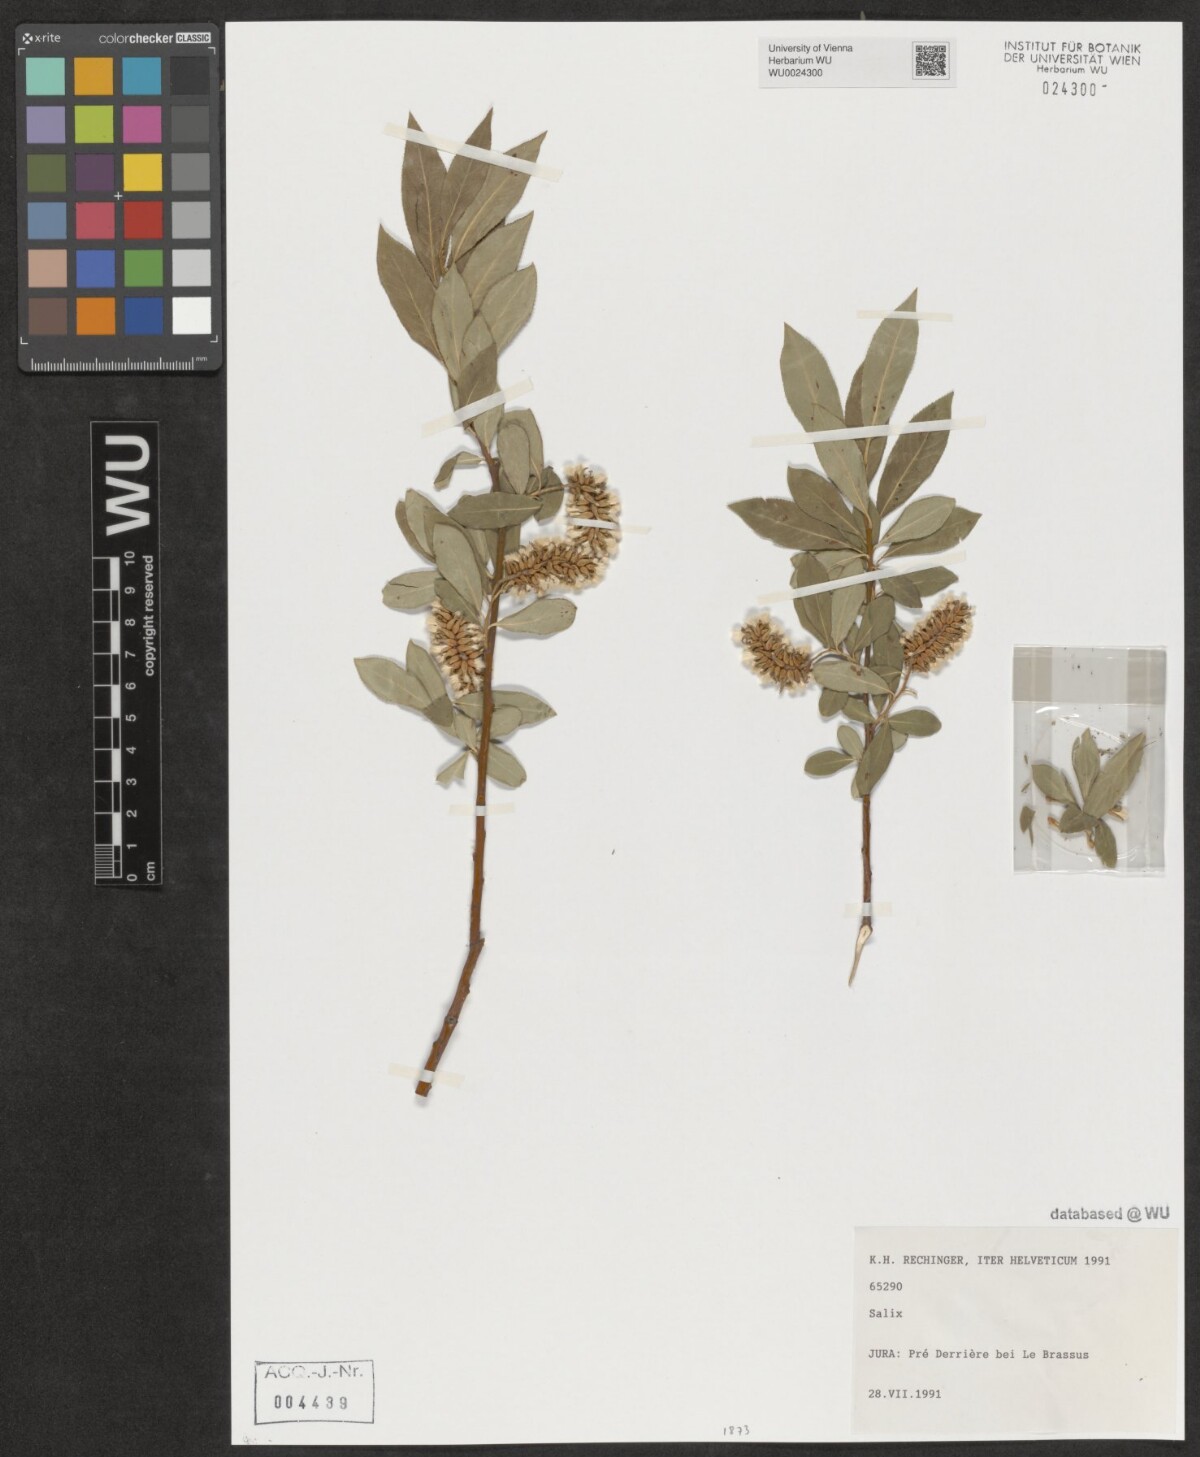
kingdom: Plantae
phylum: Tracheophyta
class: Magnoliopsida
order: Malpighiales
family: Salicaceae
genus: Salix
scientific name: Salix
